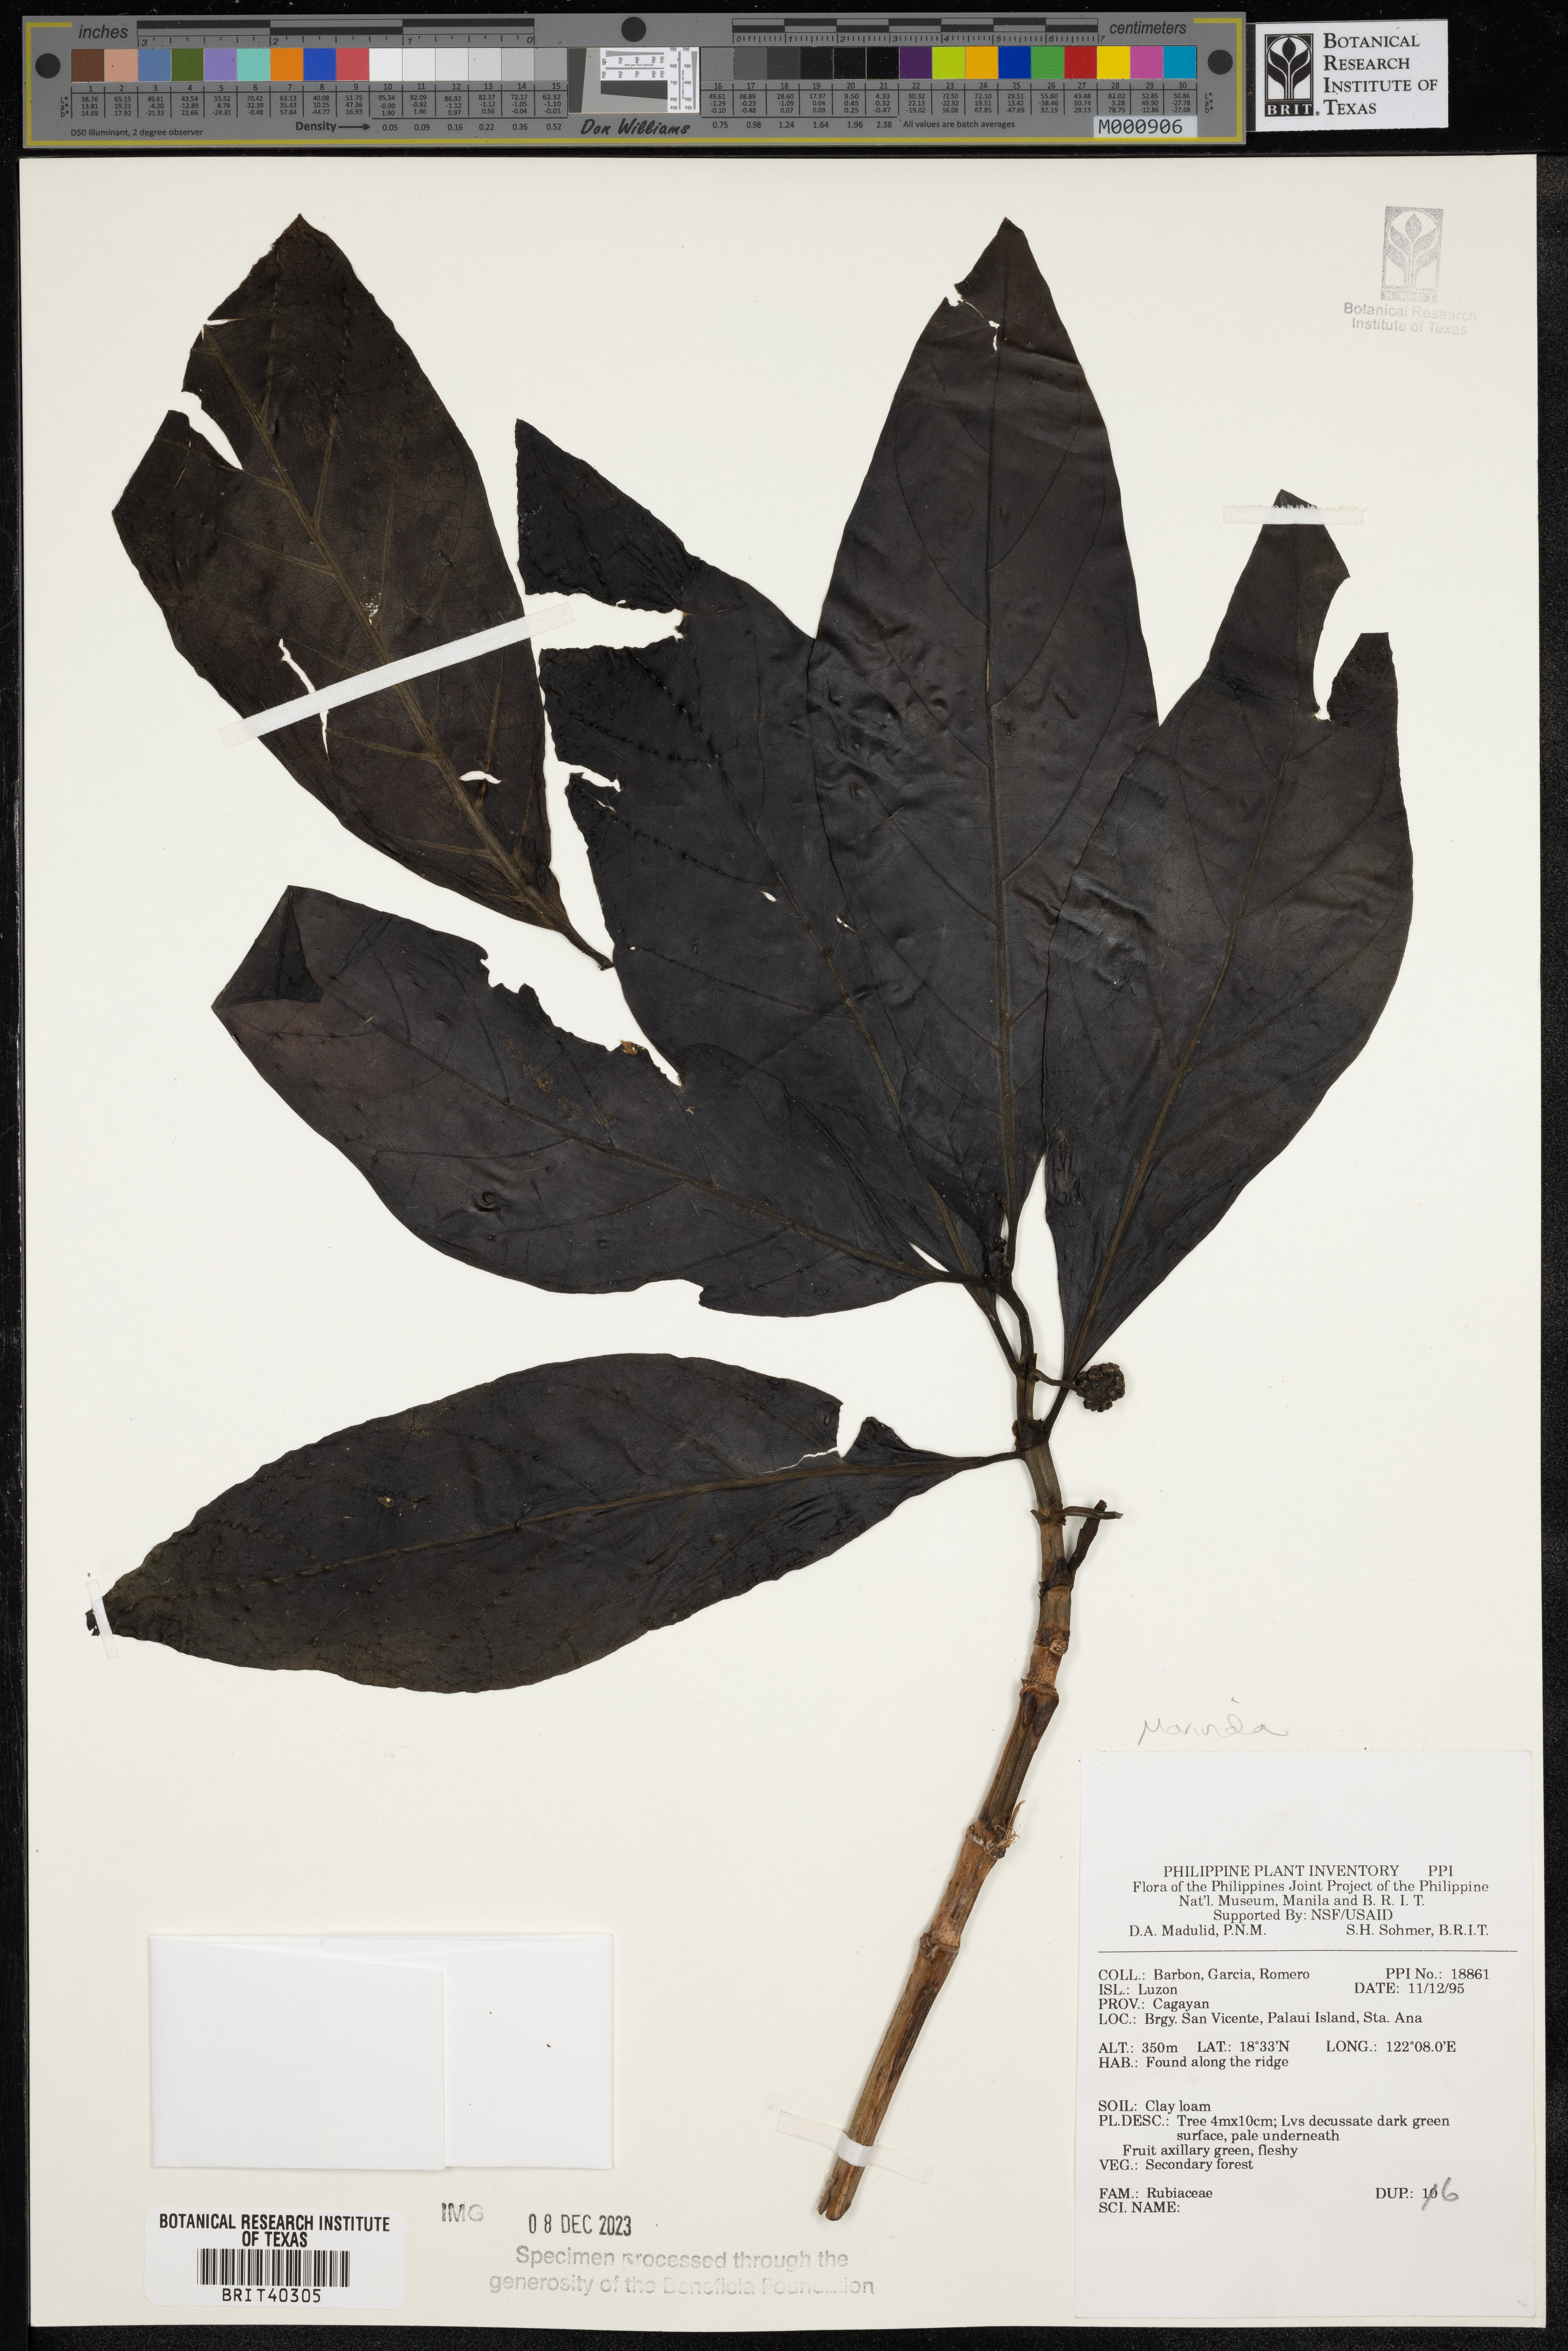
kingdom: Plantae
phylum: Tracheophyta
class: Magnoliopsida
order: Gentianales
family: Rubiaceae
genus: Morinda
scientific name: Morinda
